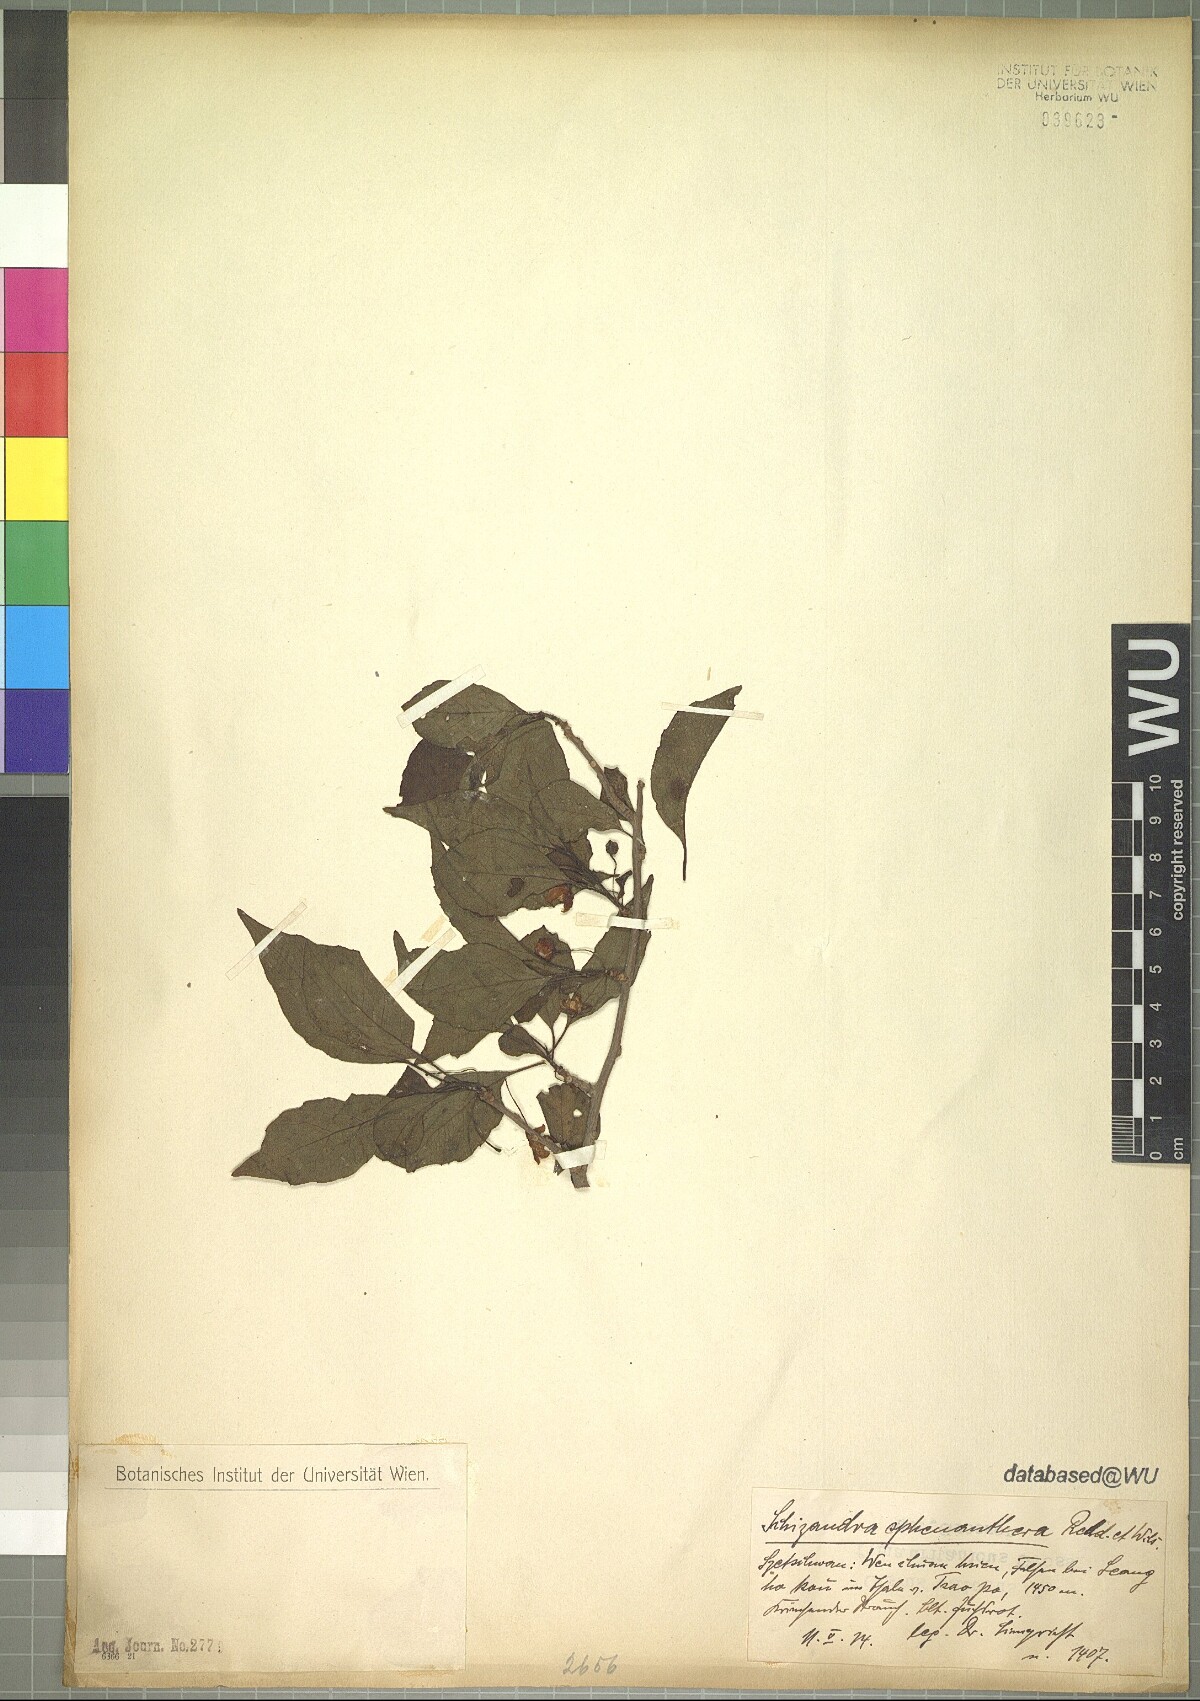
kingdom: Plantae
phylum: Tracheophyta
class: Magnoliopsida
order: Austrobaileyales
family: Schisandraceae
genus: Schisandra
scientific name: Schisandra sphenanthera
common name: Lemonwood
